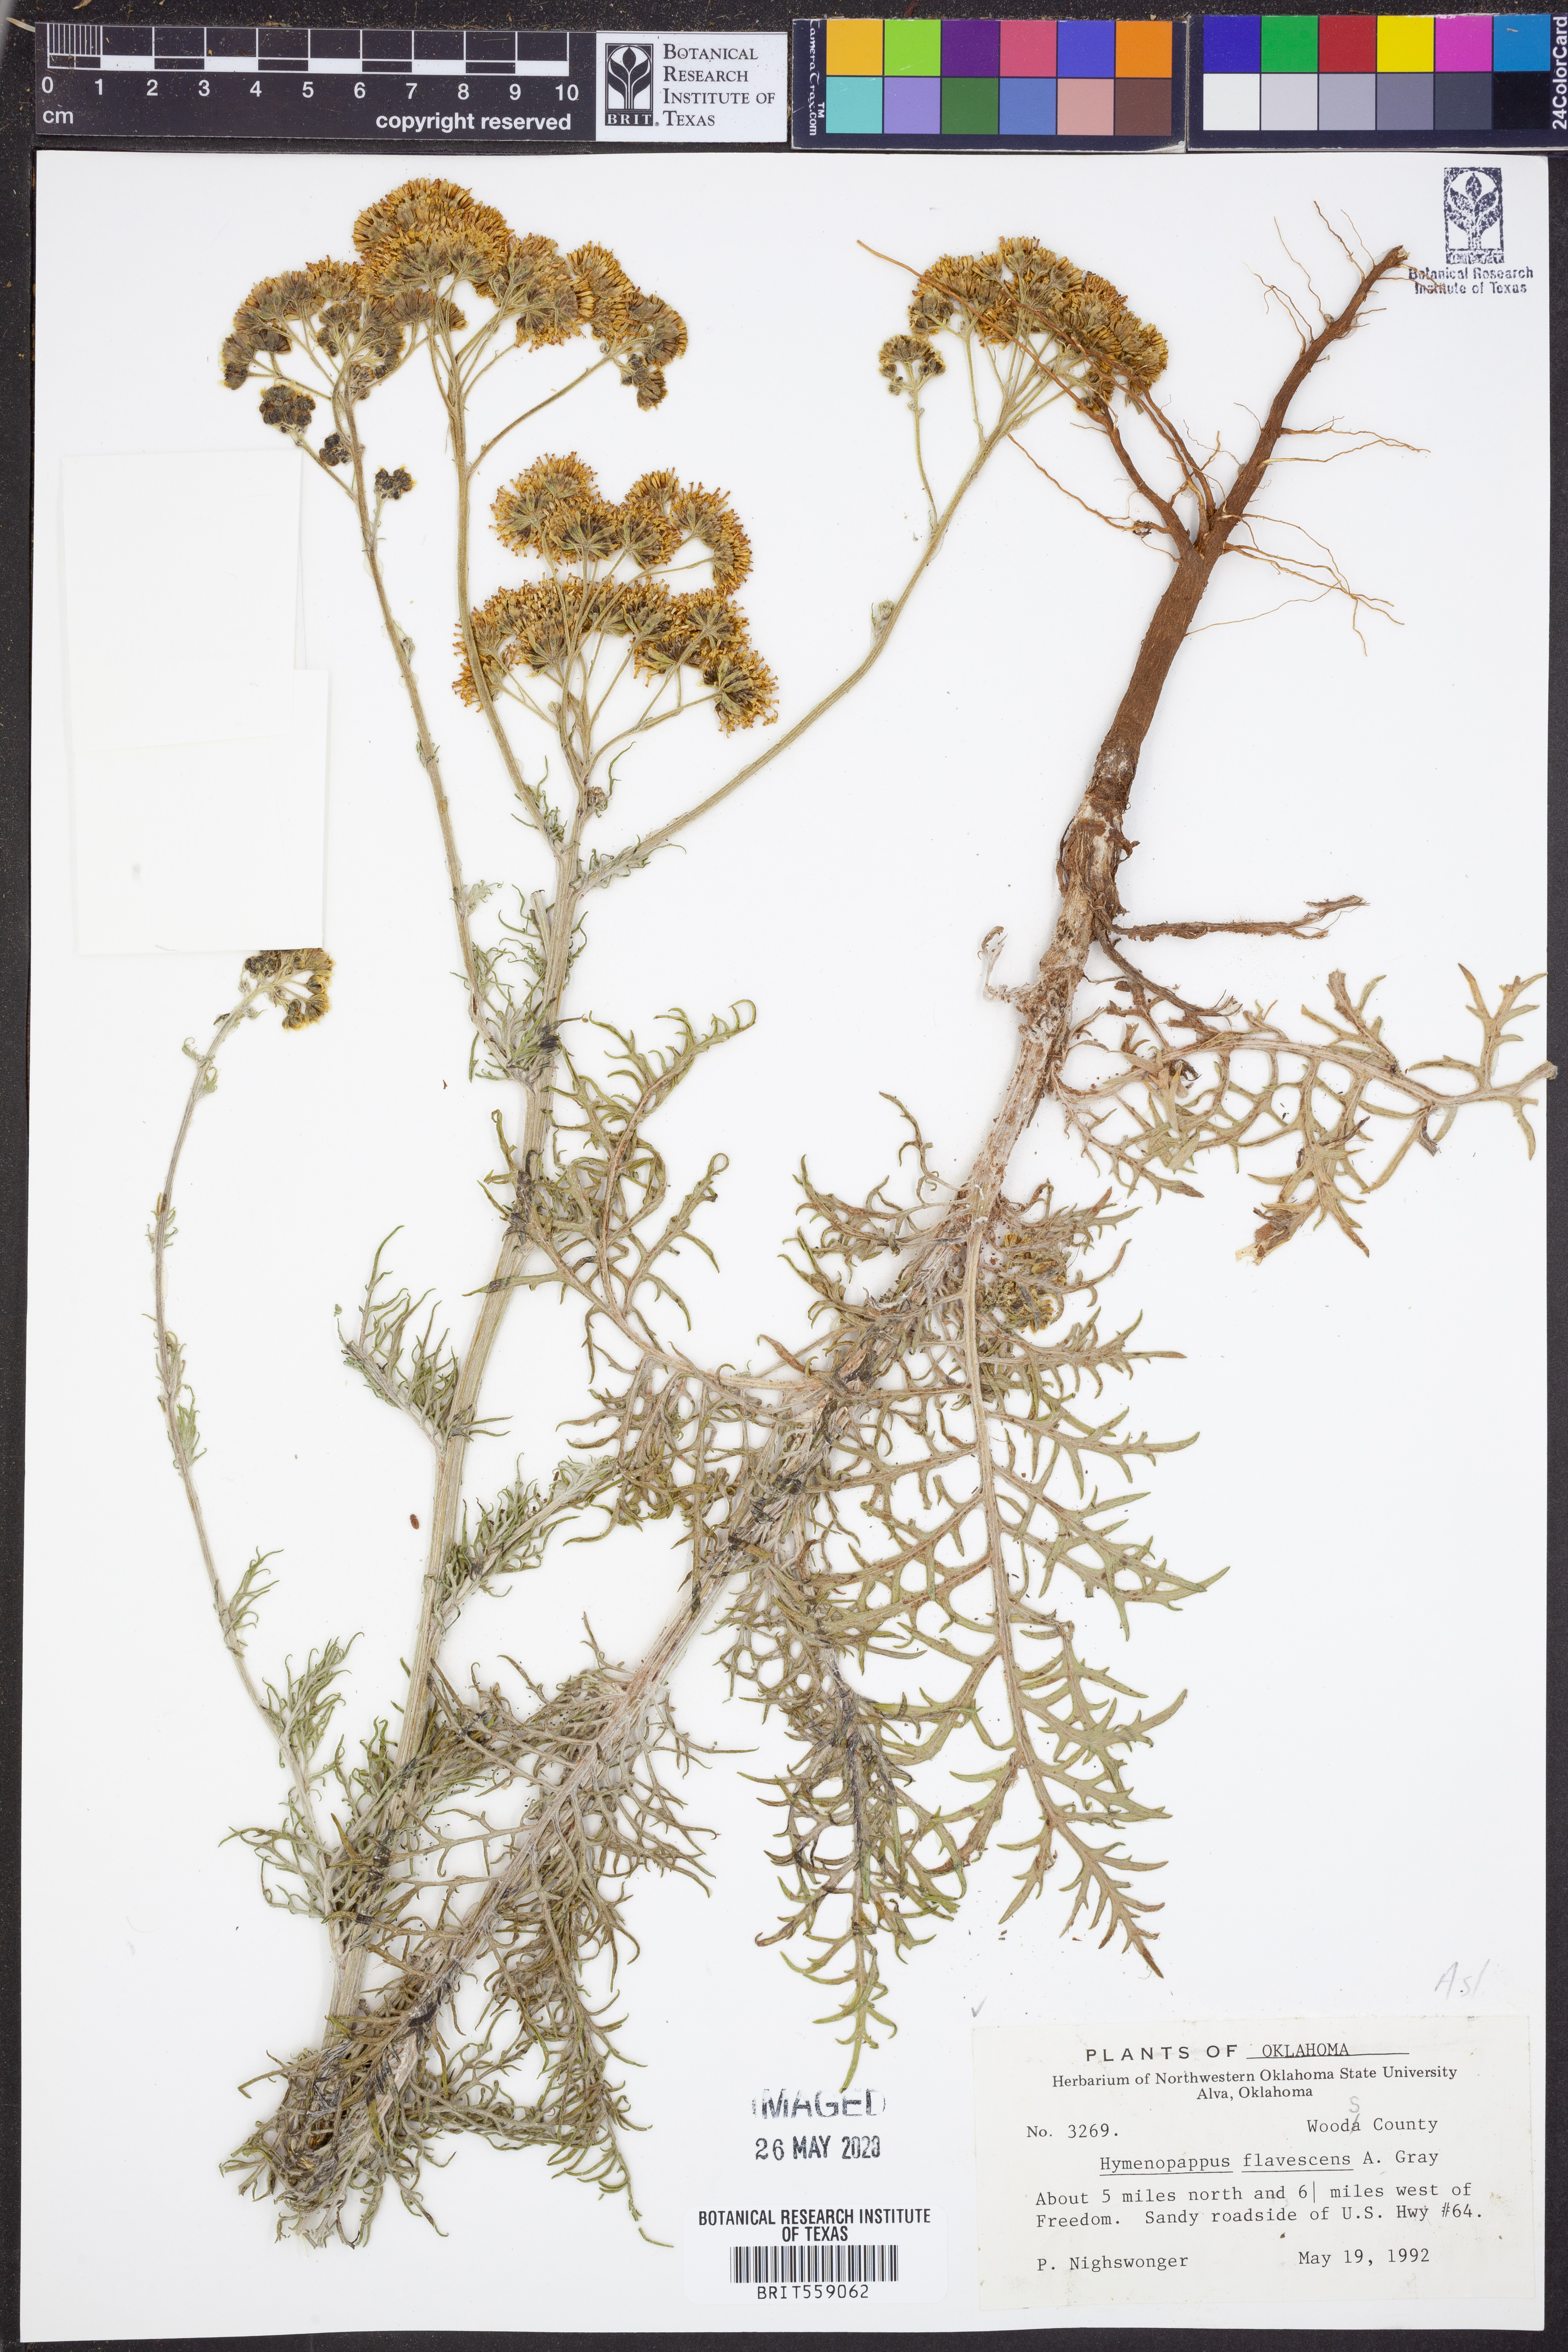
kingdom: Plantae
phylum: Tracheophyta
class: Magnoliopsida
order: Asterales
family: Asteraceae
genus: Hymenopappus
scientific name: Hymenopappus flavescens
